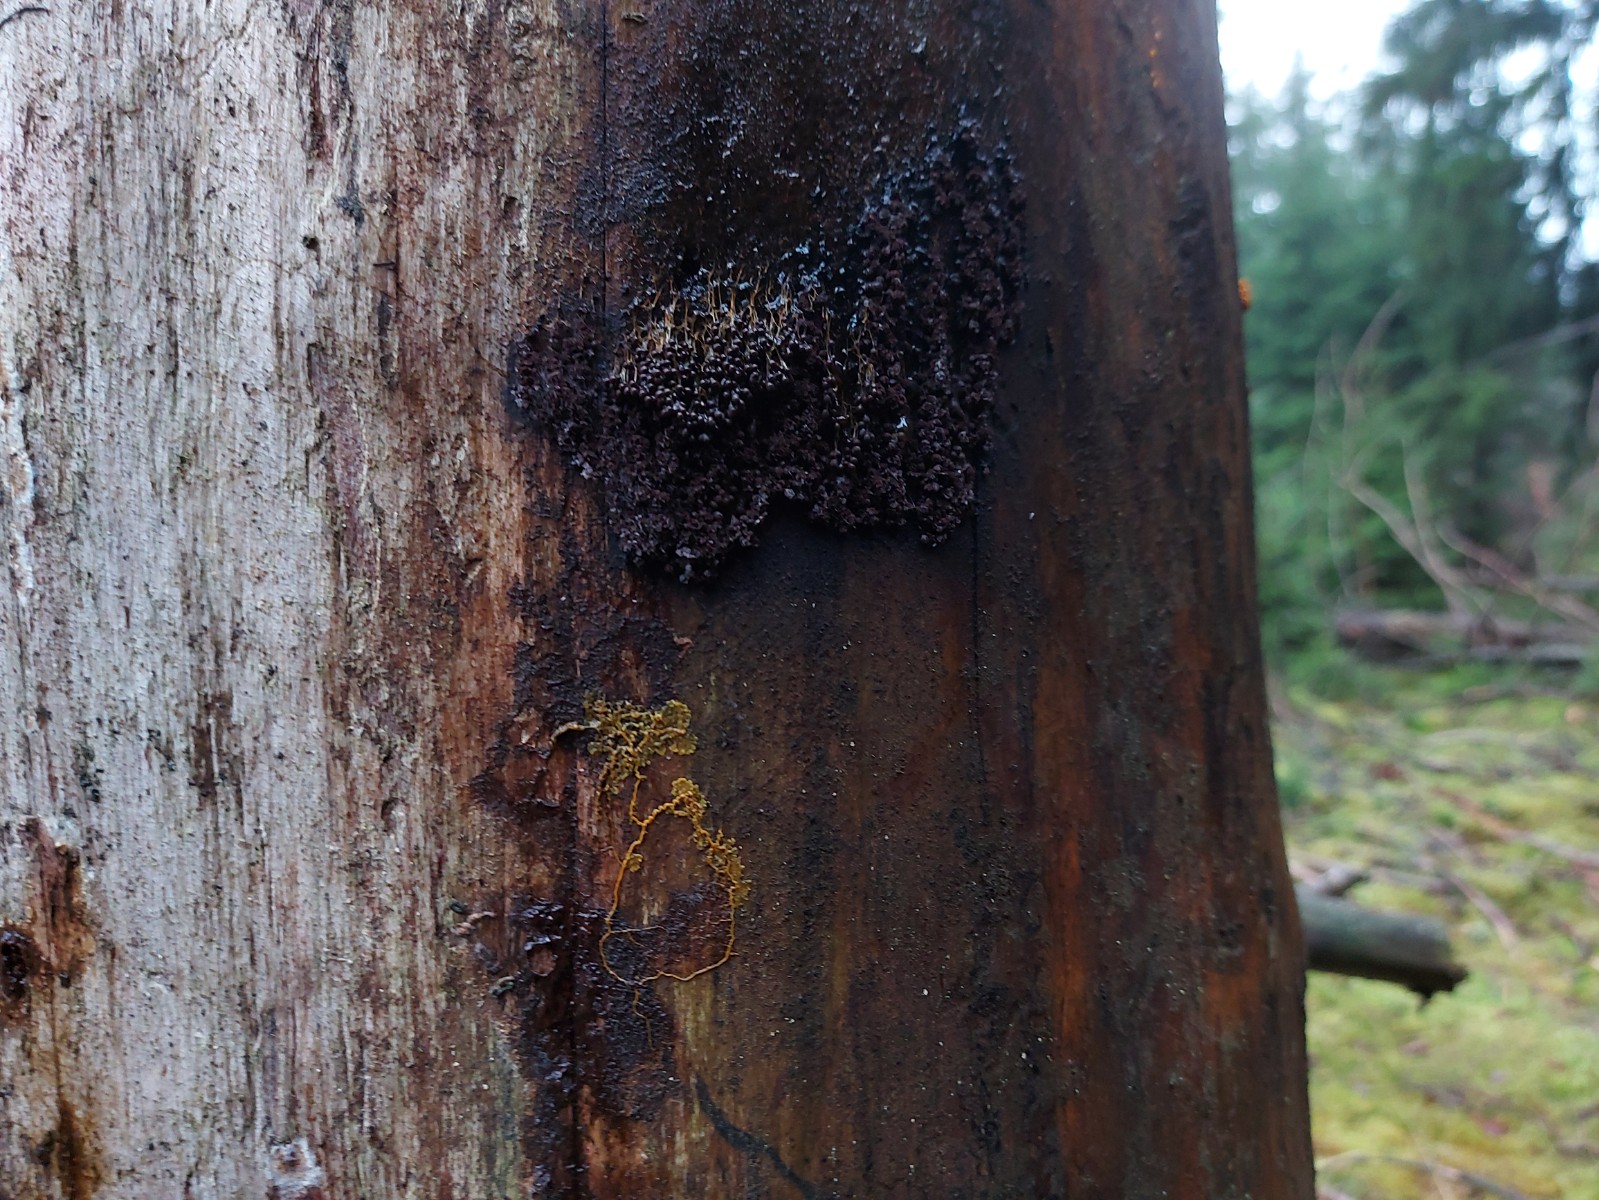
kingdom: Protozoa
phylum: Mycetozoa
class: Myxomycetes
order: Physarales
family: Physaraceae
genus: Badhamia
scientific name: Badhamia utricularis
